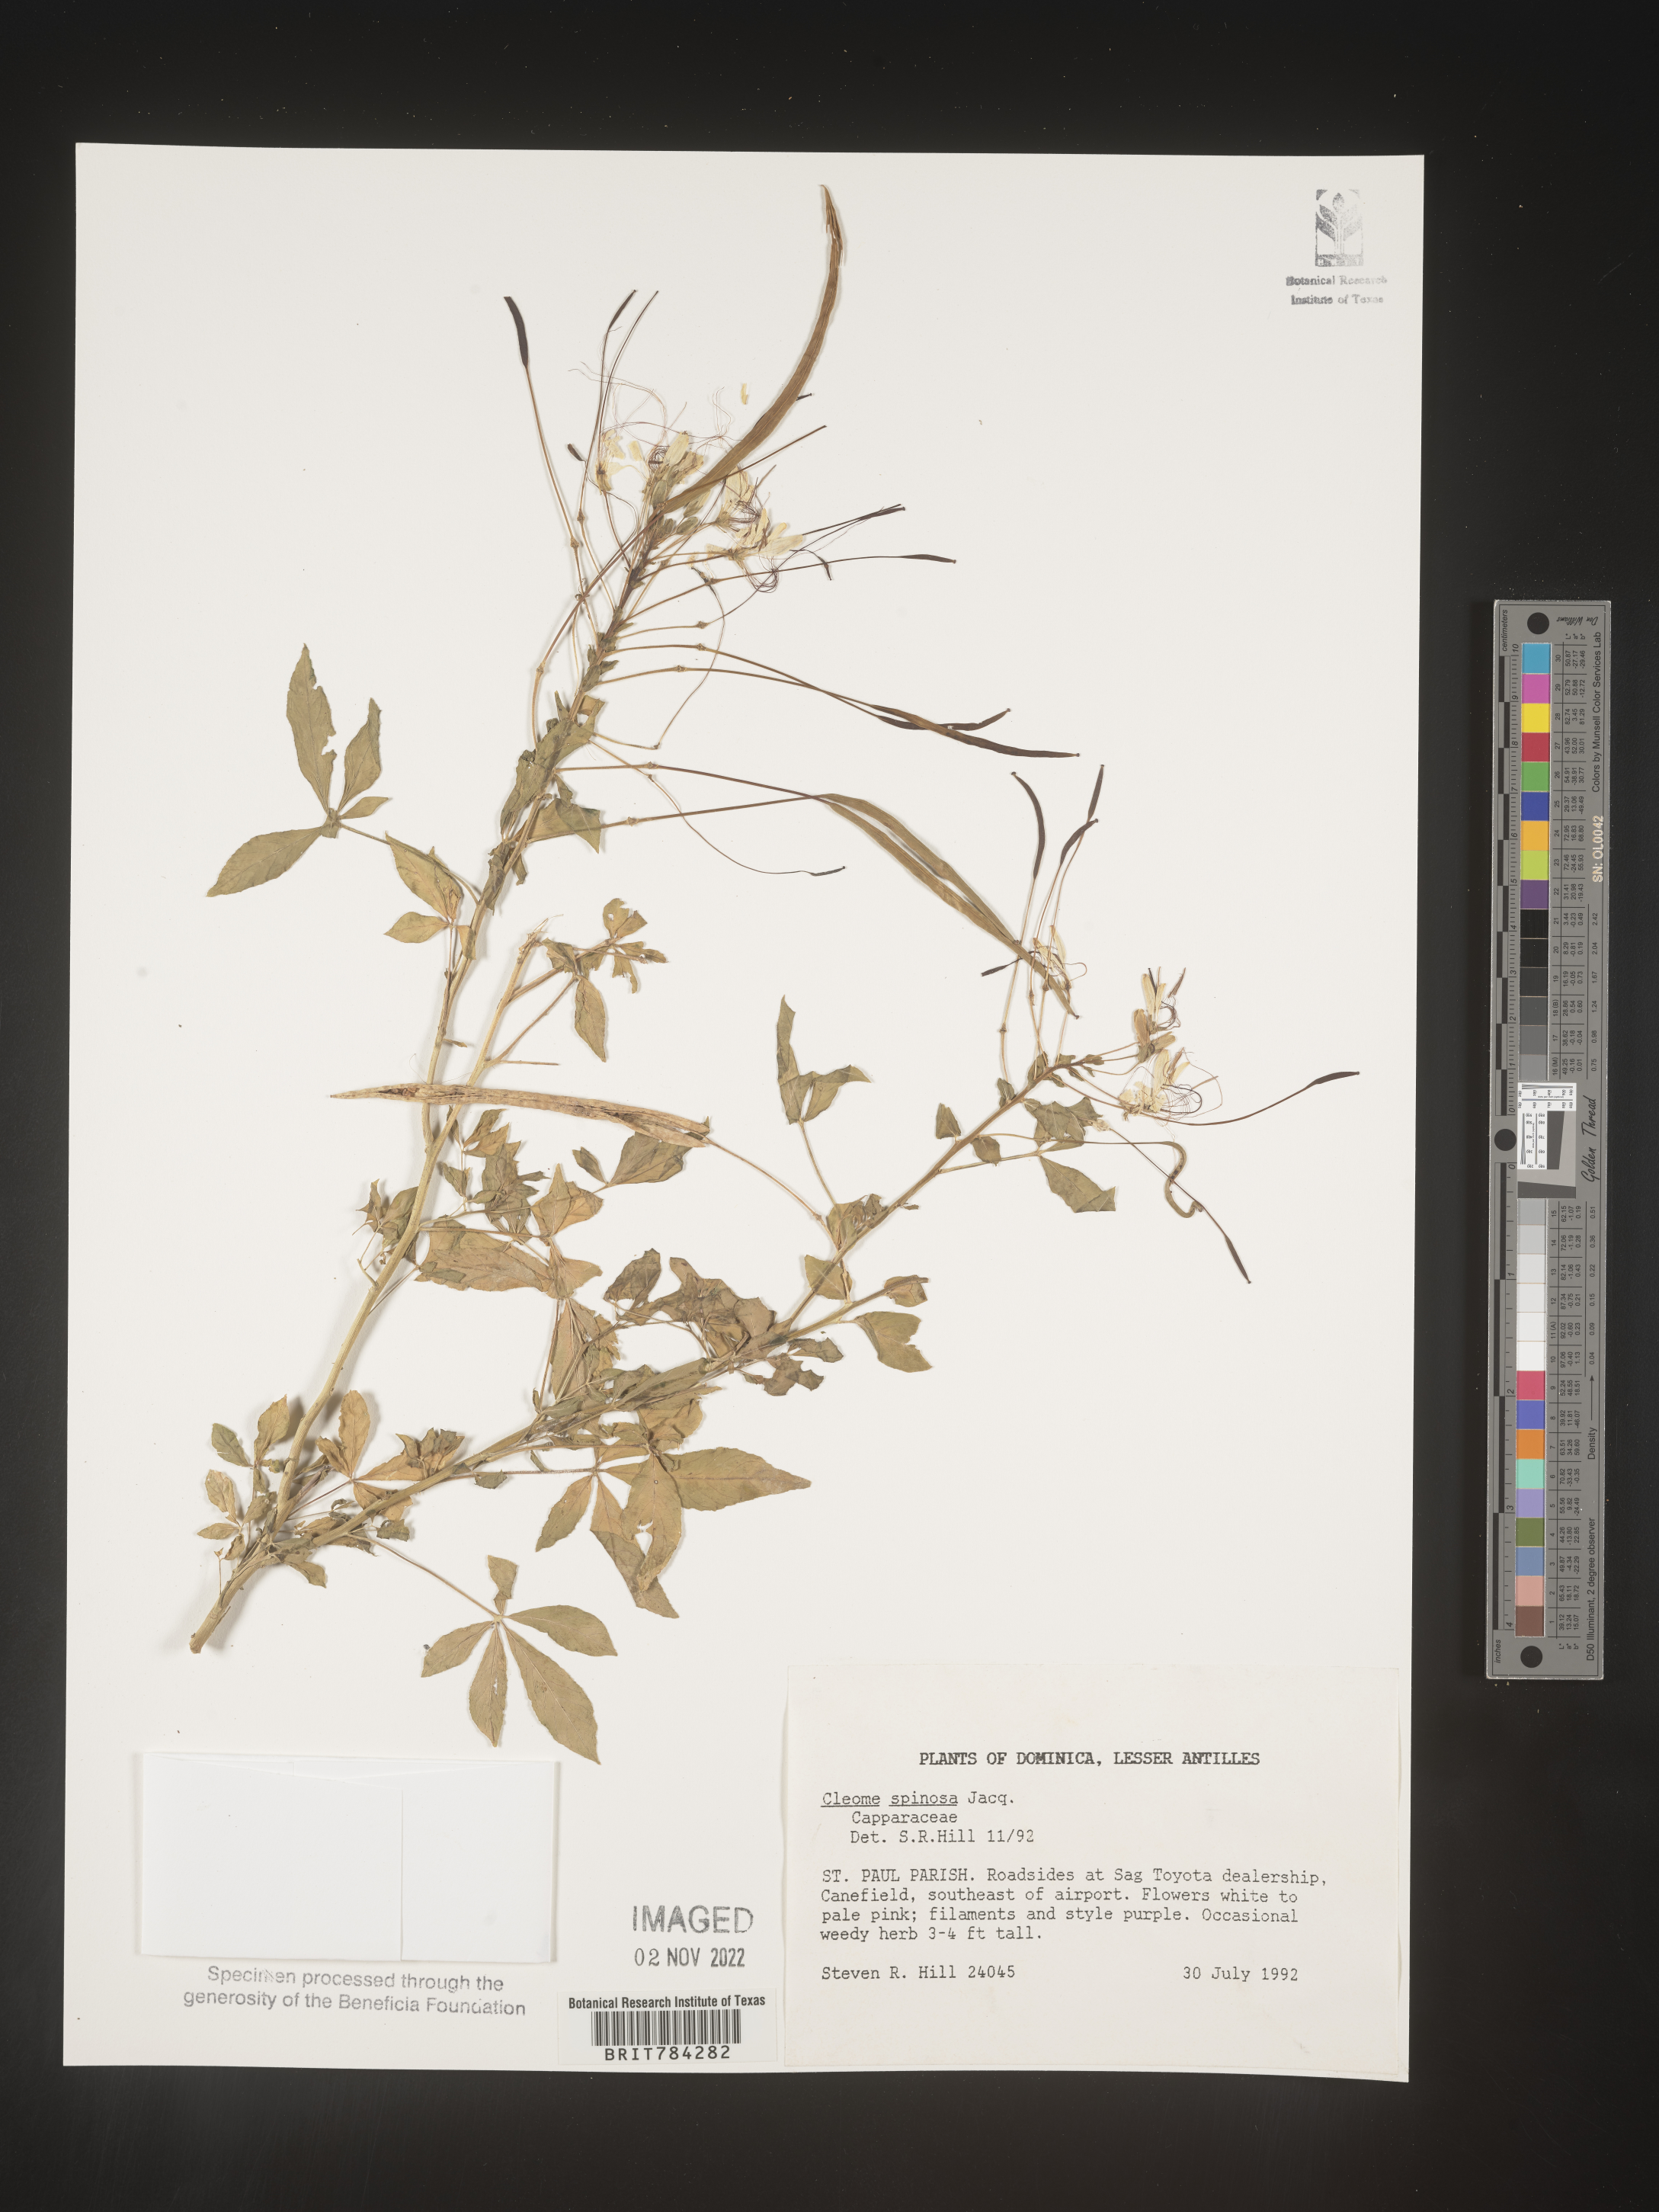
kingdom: Plantae
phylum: Tracheophyta
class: Magnoliopsida
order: Brassicales
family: Cleomaceae
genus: Cleome
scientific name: Cleome
